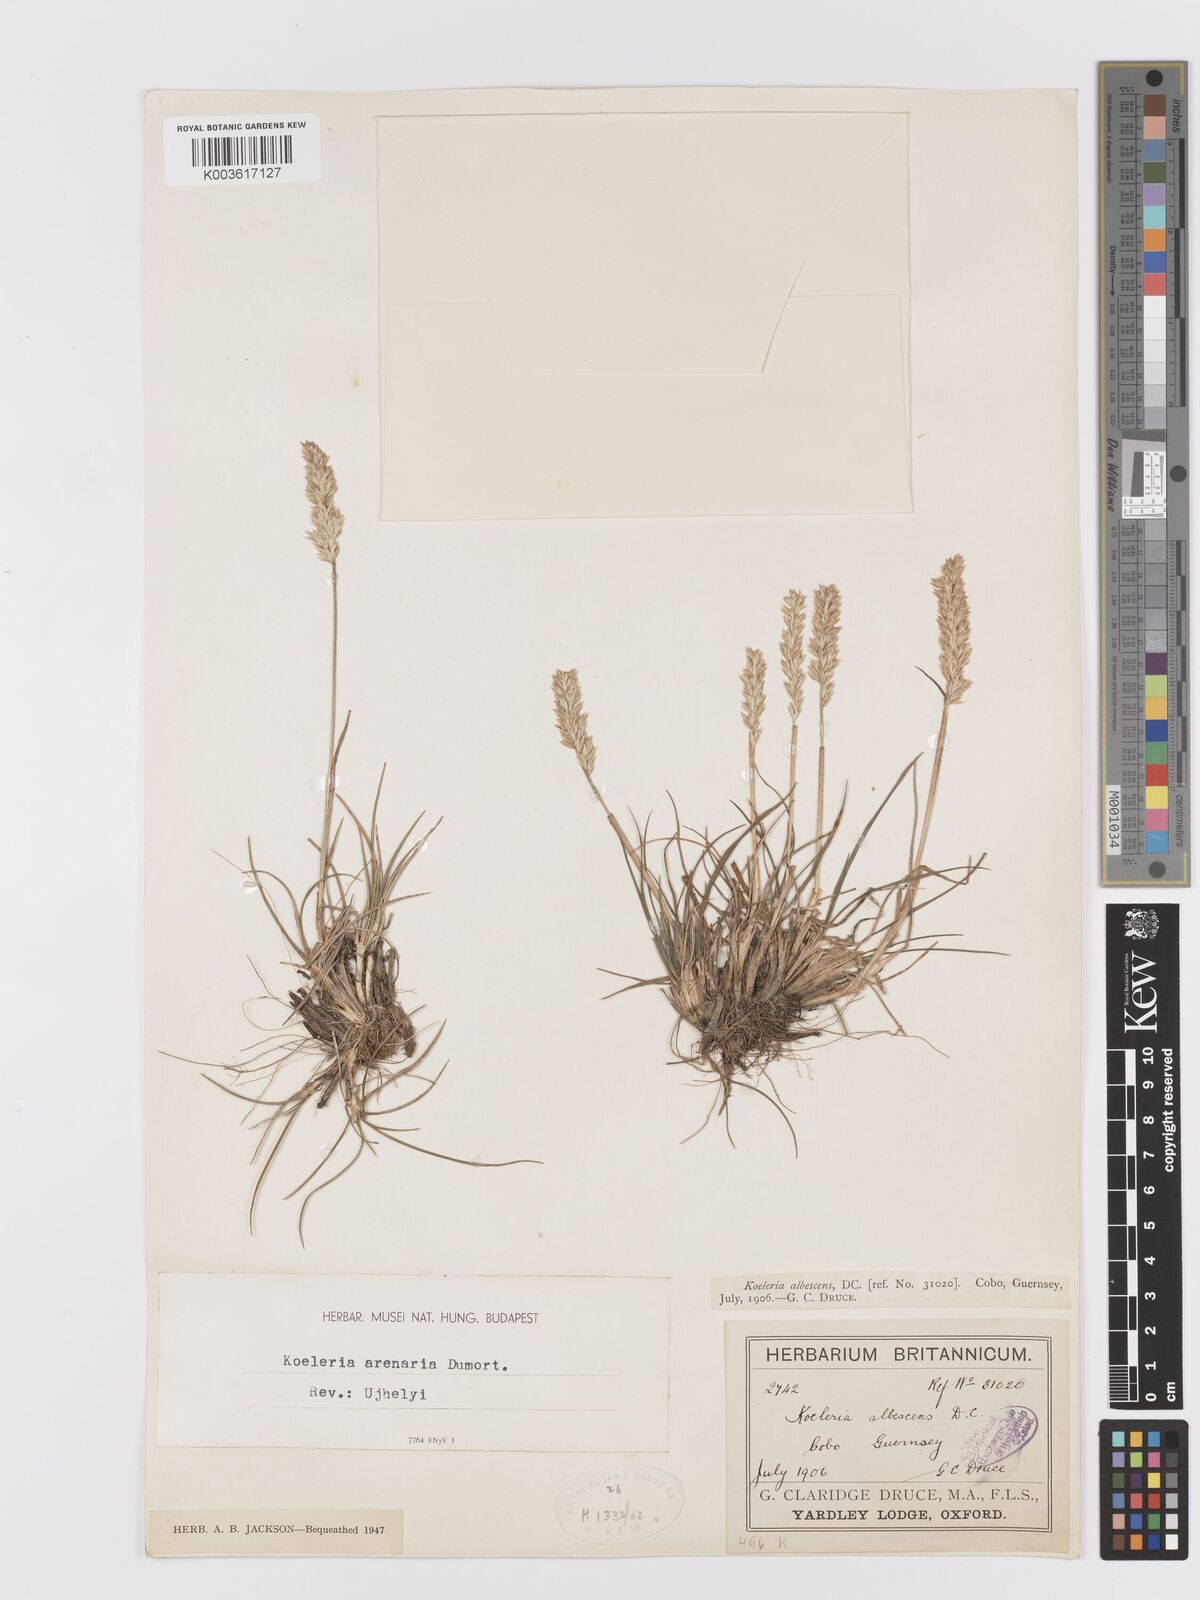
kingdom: Plantae
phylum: Tracheophyta
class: Liliopsida
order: Poales
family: Poaceae
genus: Koeleria
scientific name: Koeleria macrantha
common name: Crested hair-grass
